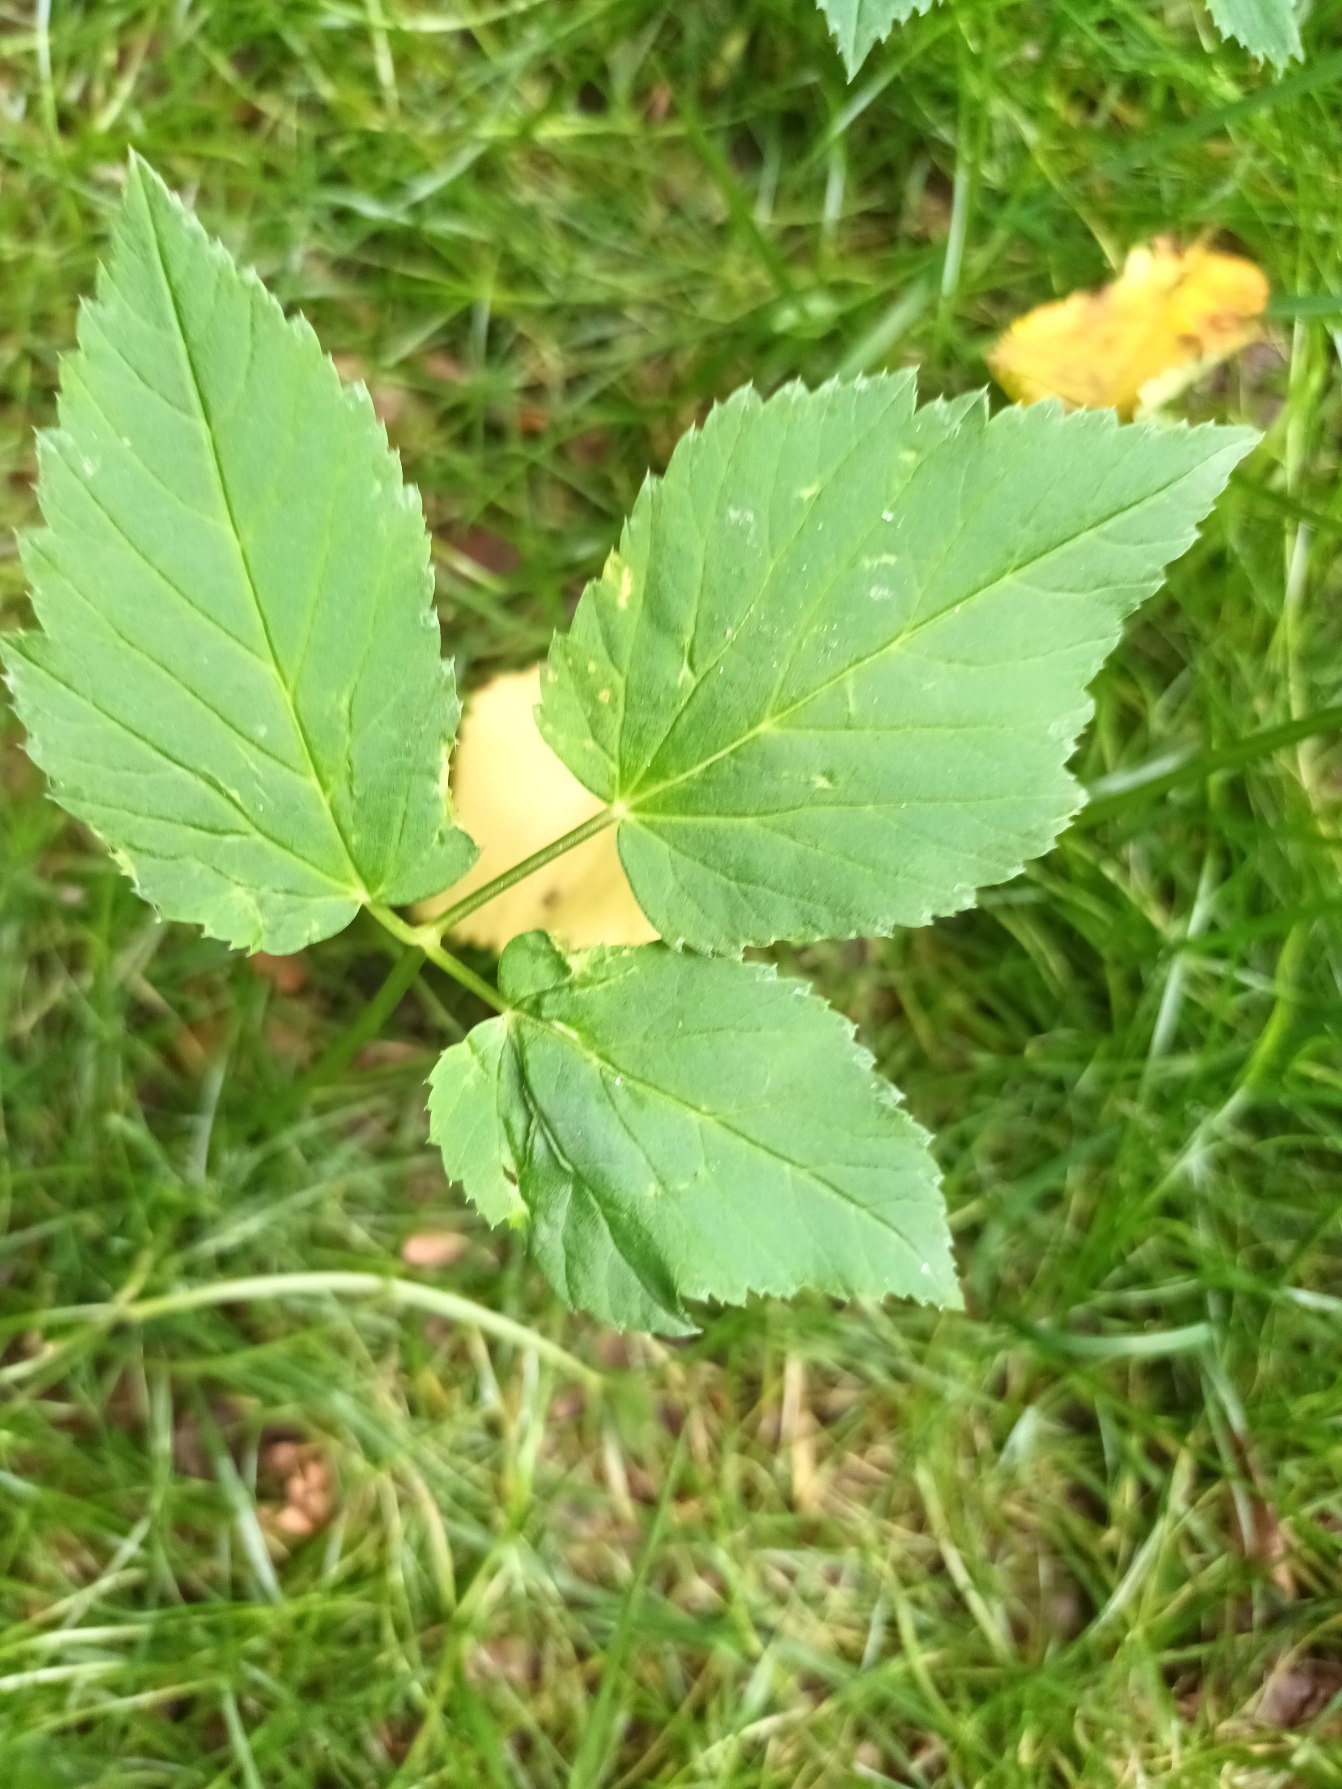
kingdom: Plantae
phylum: Tracheophyta
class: Magnoliopsida
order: Apiales
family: Apiaceae
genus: Aegopodium
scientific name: Aegopodium podagraria
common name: Skvalderkål
